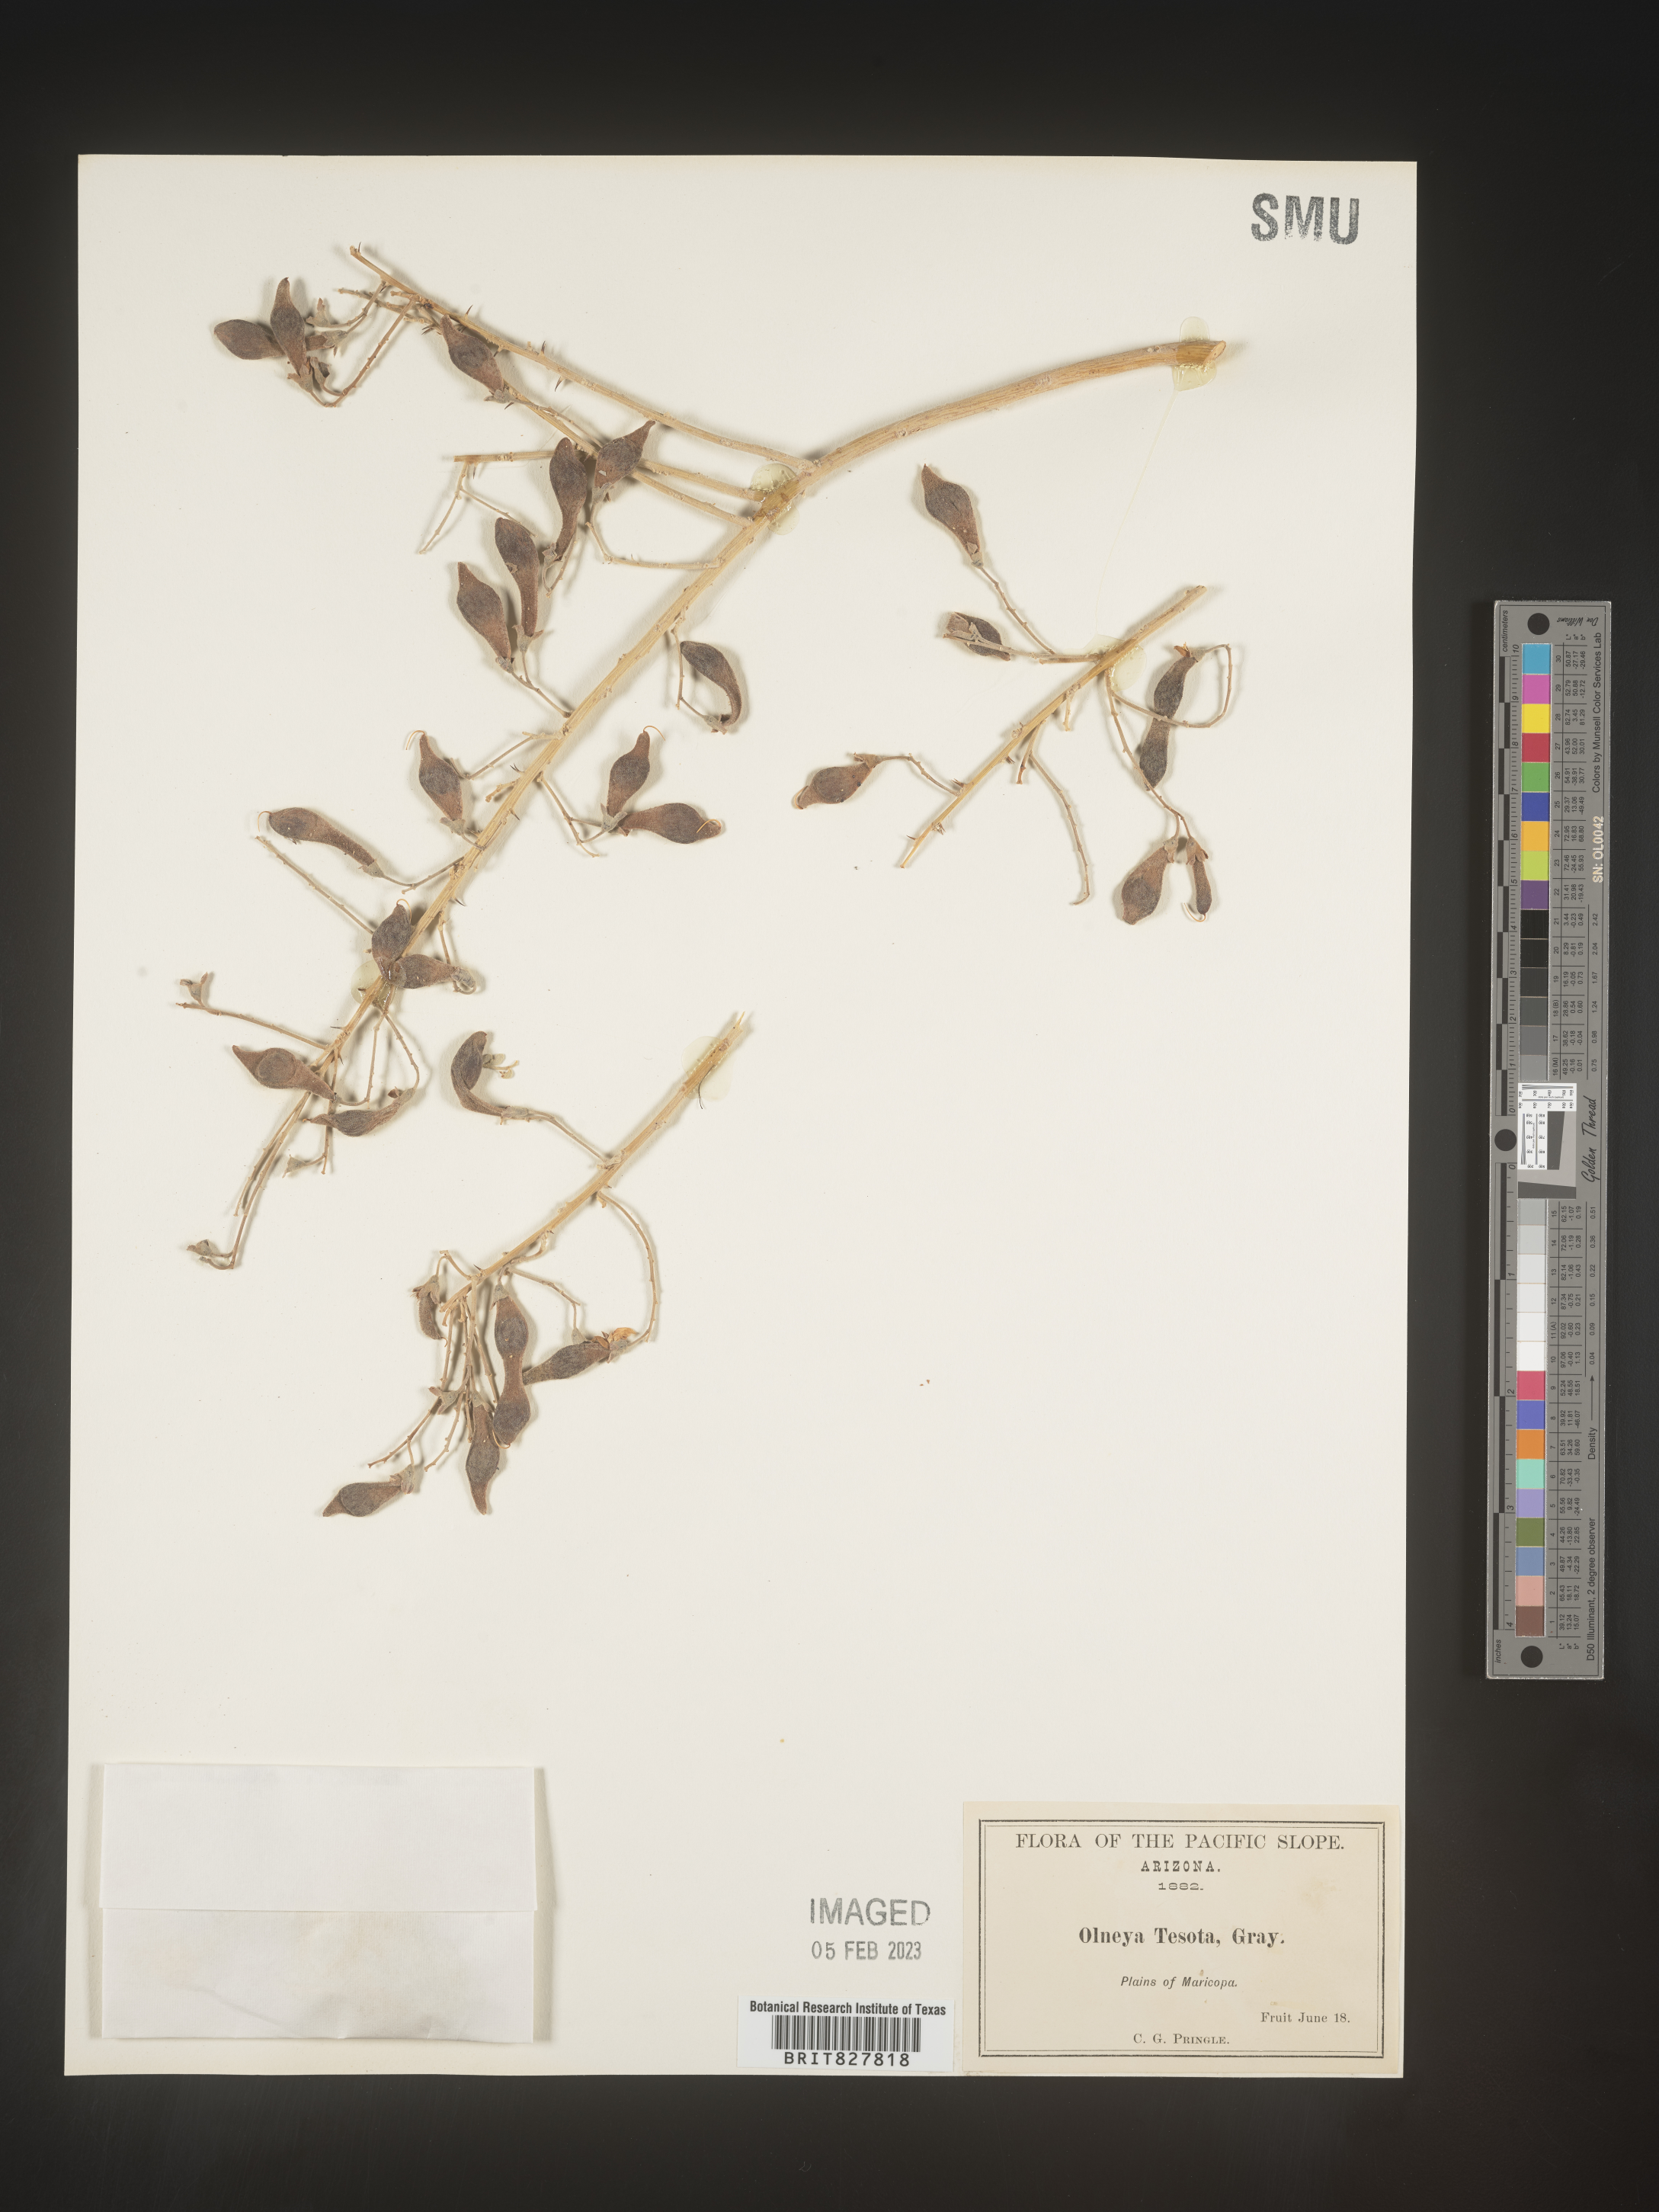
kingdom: Plantae
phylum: Tracheophyta
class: Magnoliopsida
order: Fabales
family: Fabaceae
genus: Olneya
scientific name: Olneya tesota
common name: Desert ironwood
